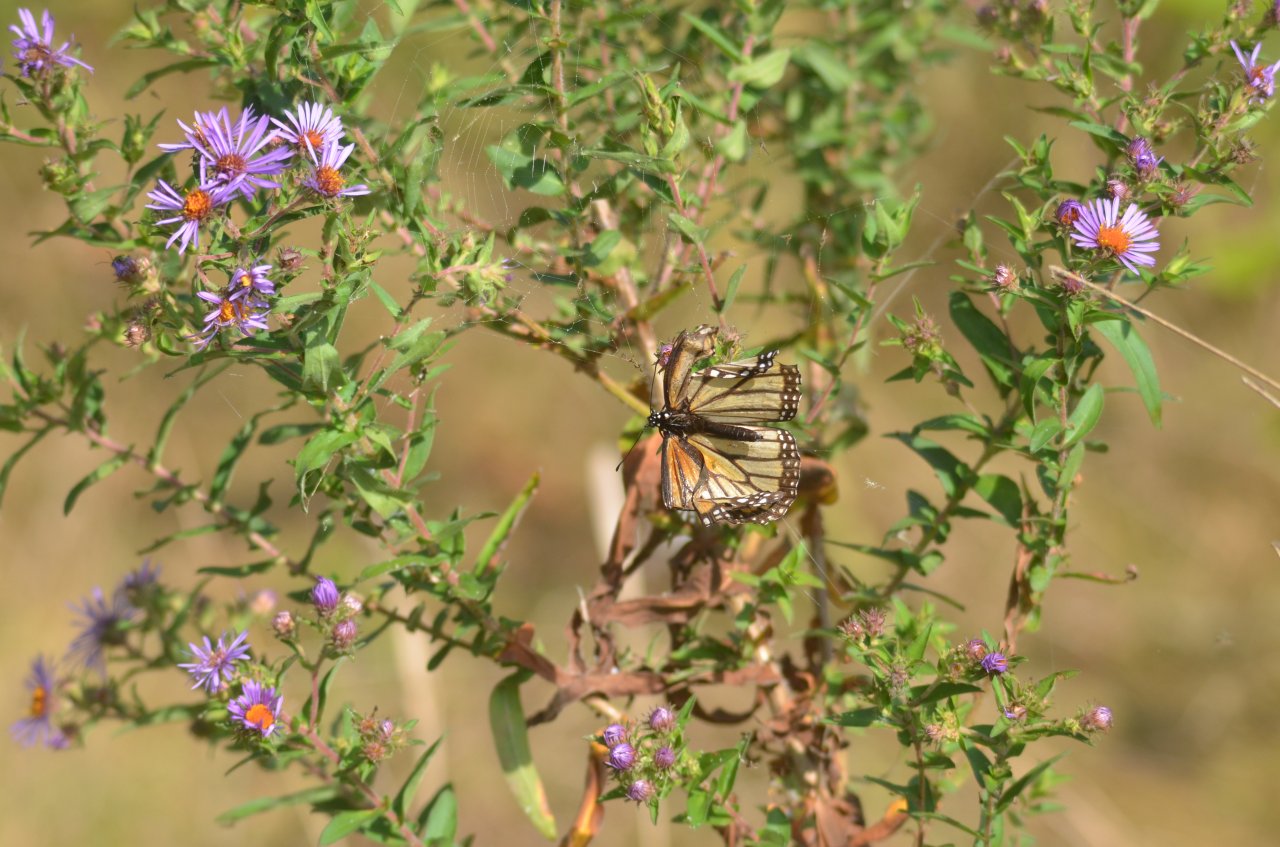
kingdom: Animalia
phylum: Arthropoda
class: Insecta
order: Lepidoptera
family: Nymphalidae
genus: Danaus
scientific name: Danaus plexippus
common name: Monarch
